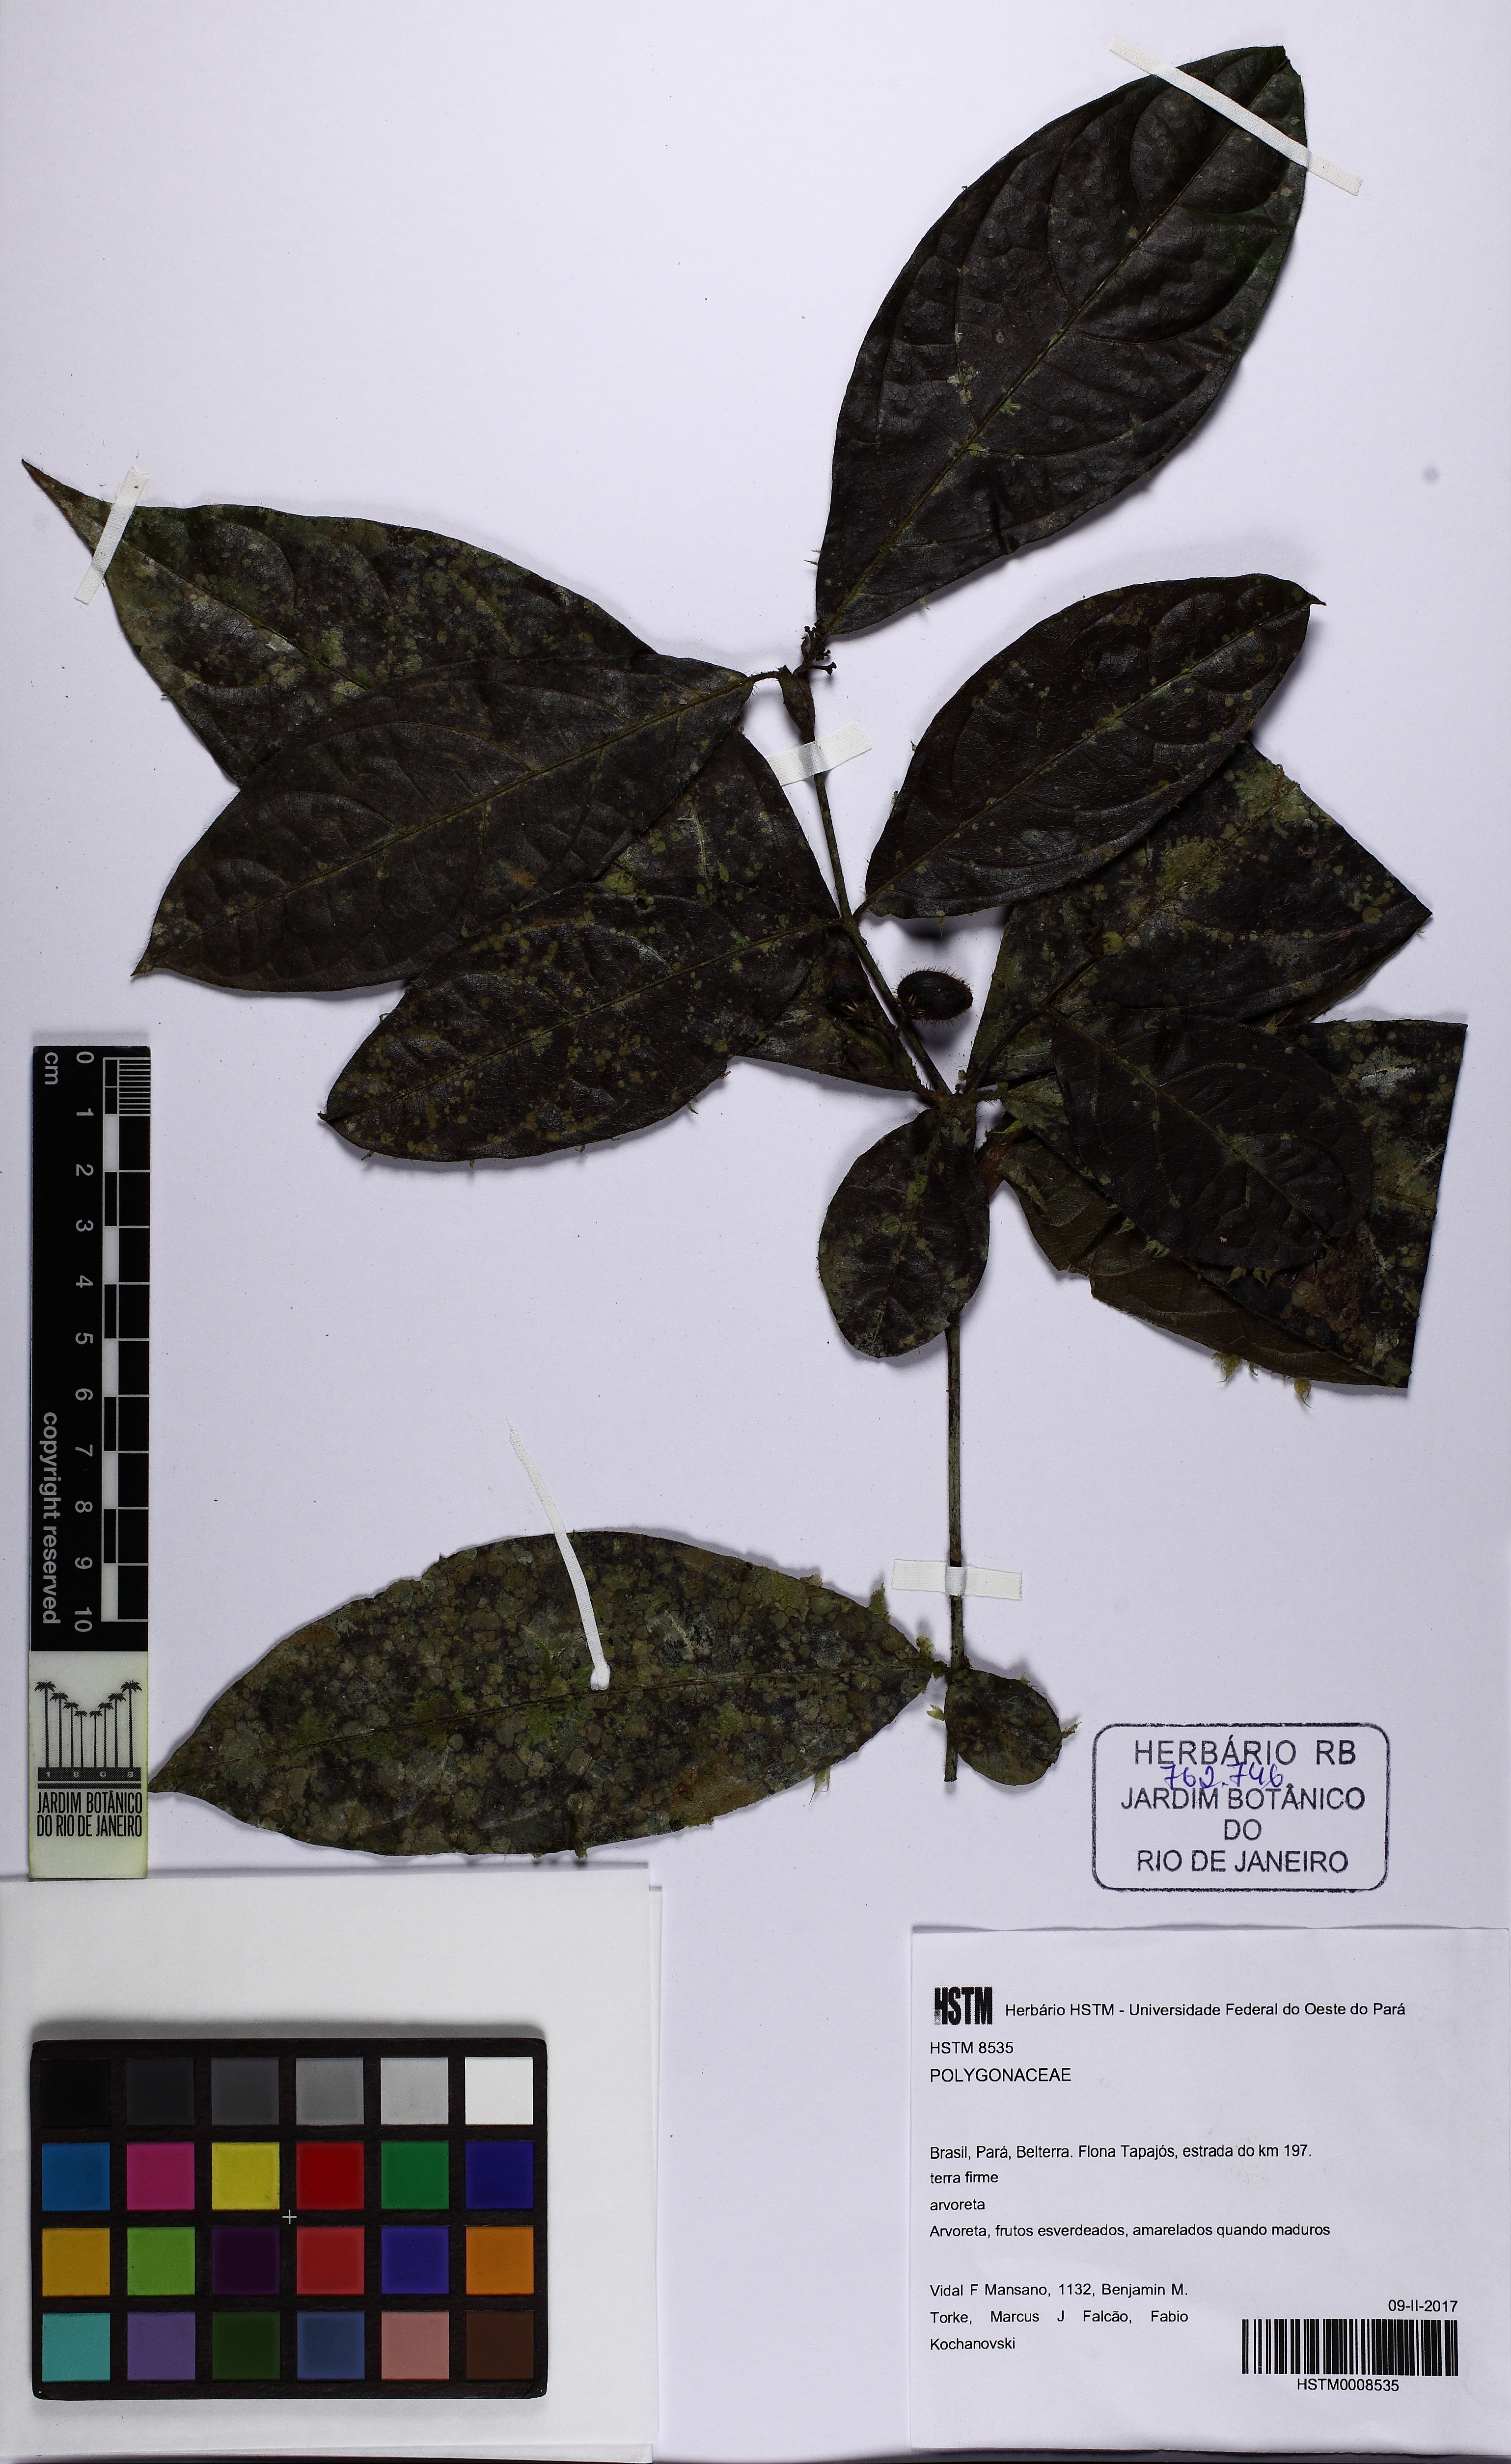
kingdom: Plantae
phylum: Tracheophyta
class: Magnoliopsida
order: Caryophyllales
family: Polygonaceae
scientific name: Polygonaceae
